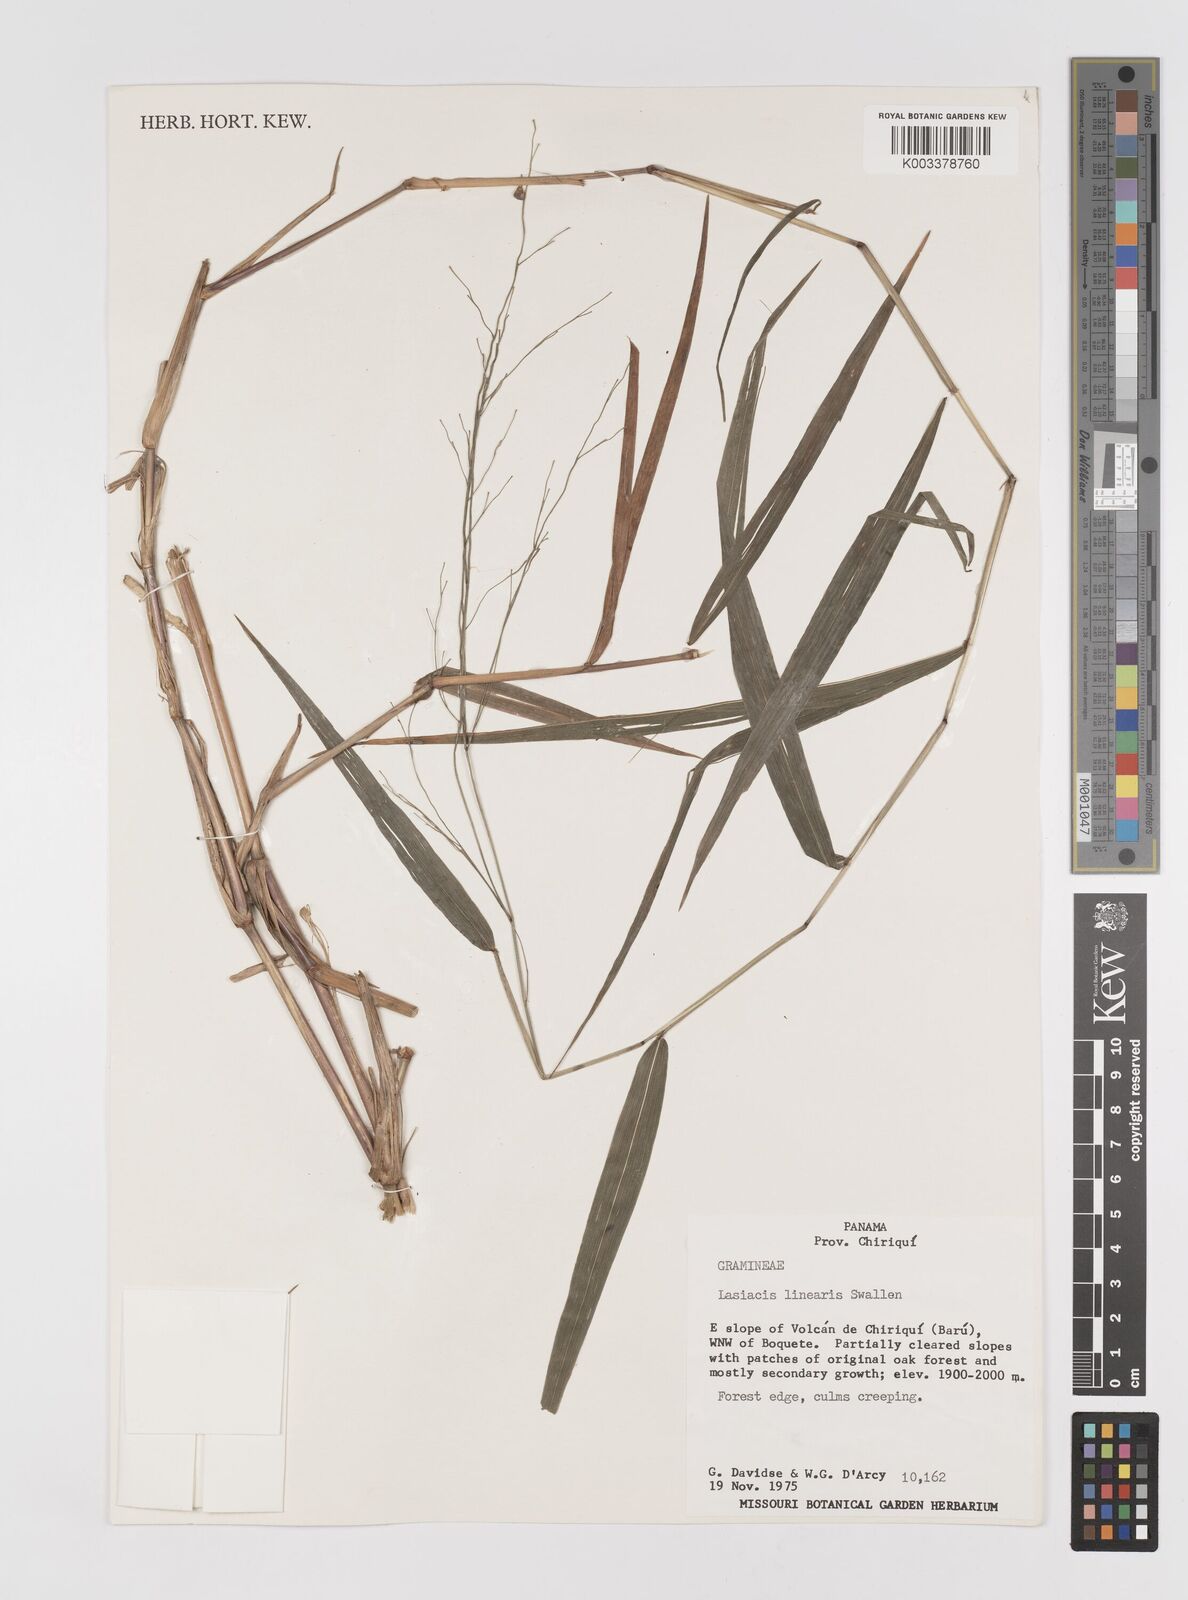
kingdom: Plantae
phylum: Tracheophyta
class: Liliopsida
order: Poales
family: Poaceae
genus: Lasiacis
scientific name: Lasiacis linearis
